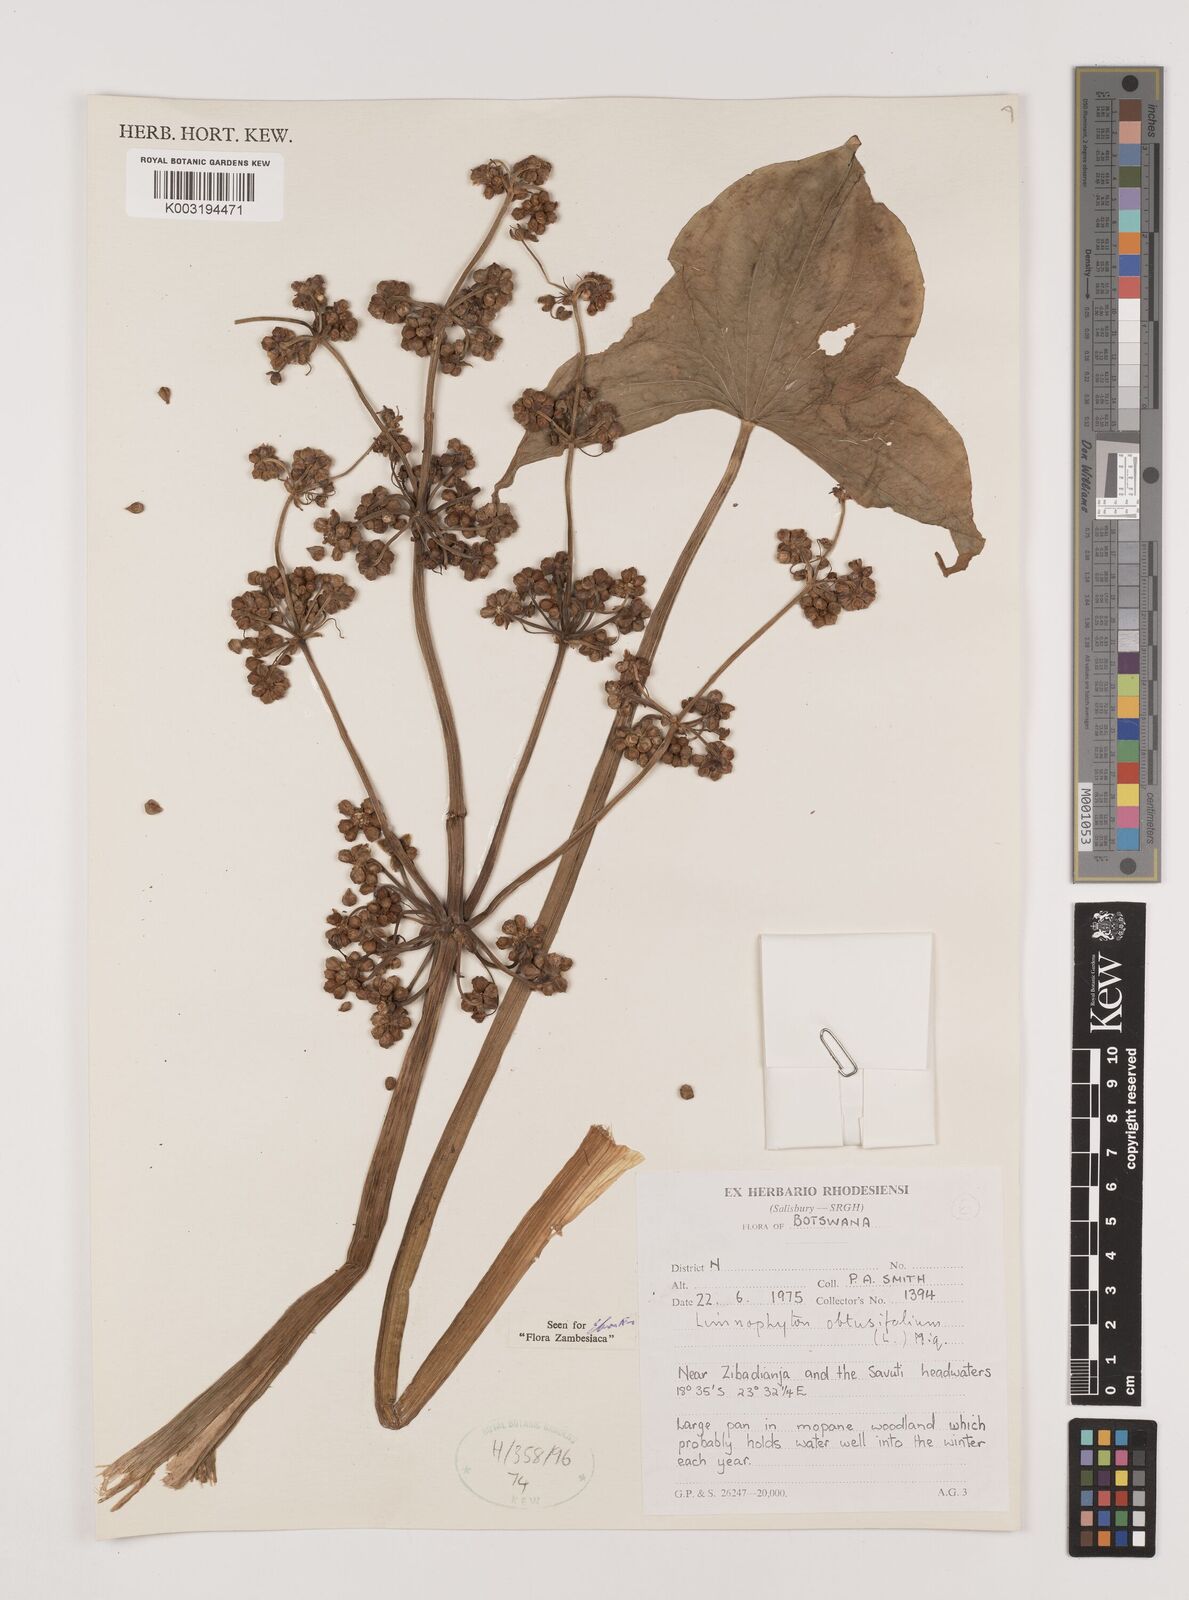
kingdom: Plantae
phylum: Tracheophyta
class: Liliopsida
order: Alismatales
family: Alismataceae
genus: Limnophyton
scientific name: Limnophyton obtusifolium
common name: Arrow head
